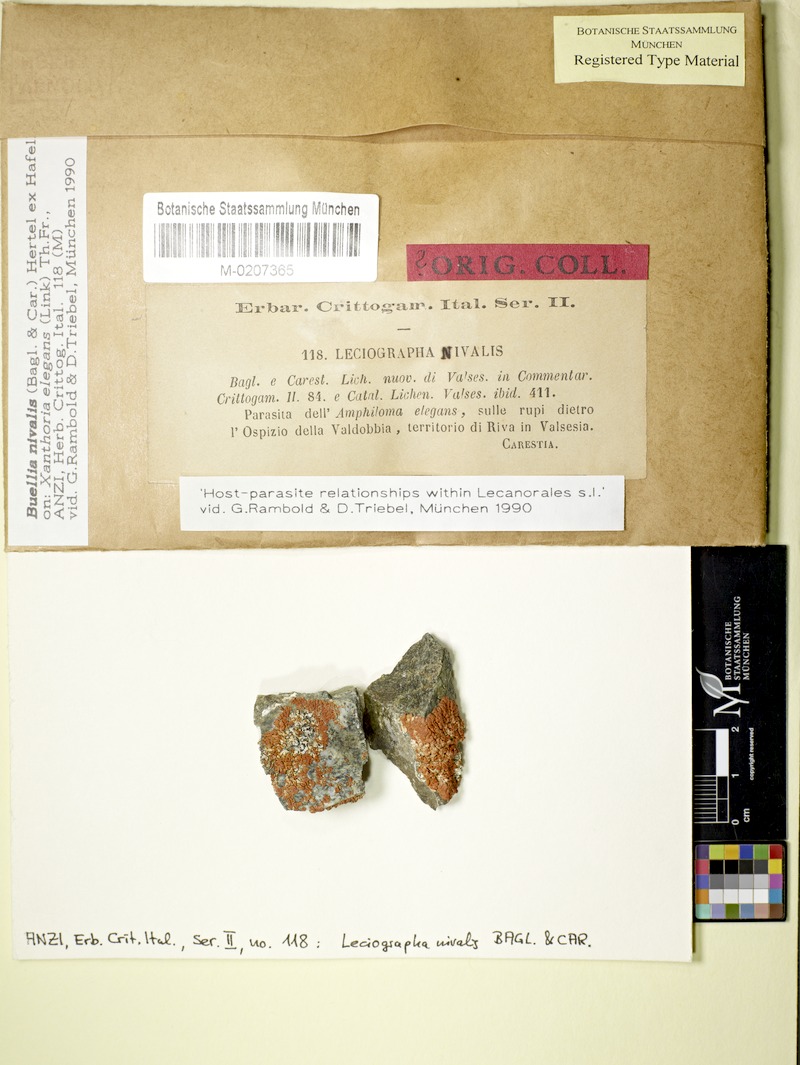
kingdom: Fungi
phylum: Ascomycota
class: Lecanoromycetes
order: Caliciales
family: Caliciaceae
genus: Diplotomma
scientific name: Diplotomma alboatrum
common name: Grayish button lichen
